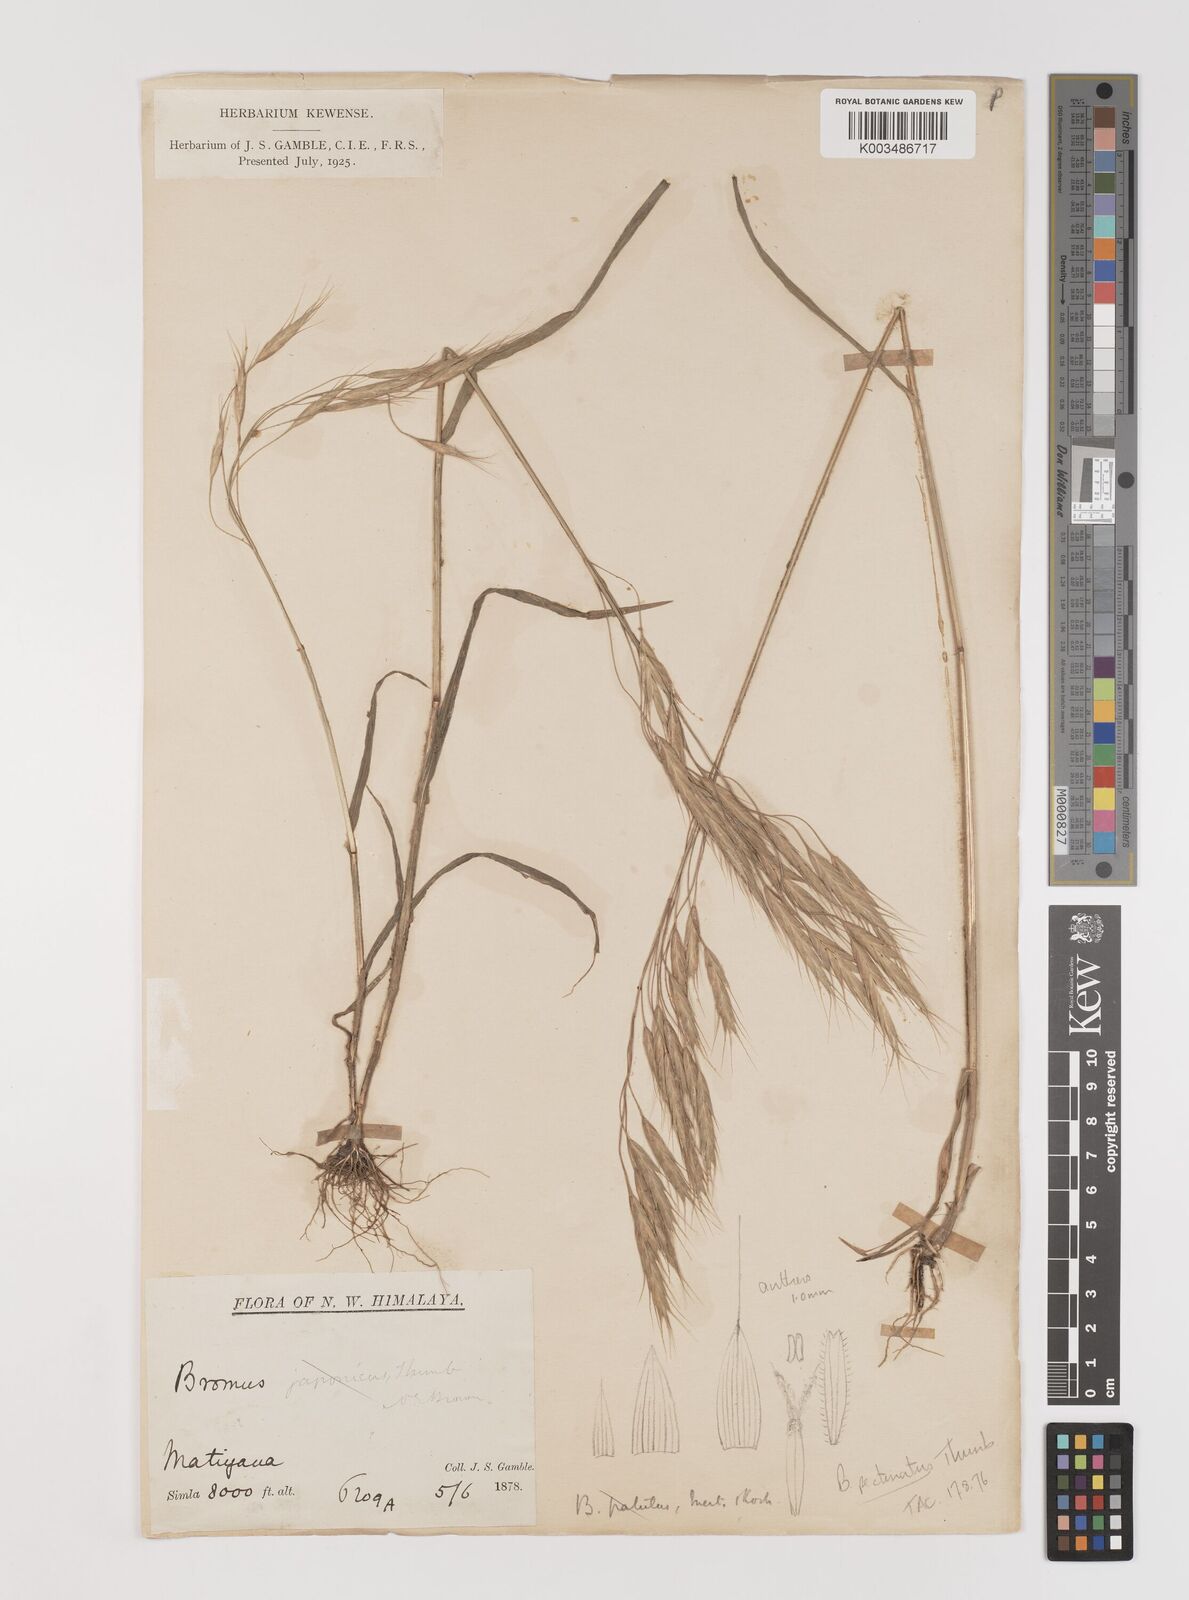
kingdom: Plantae
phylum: Tracheophyta
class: Liliopsida
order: Poales
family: Poaceae
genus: Bromus
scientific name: Bromus pectinatus
